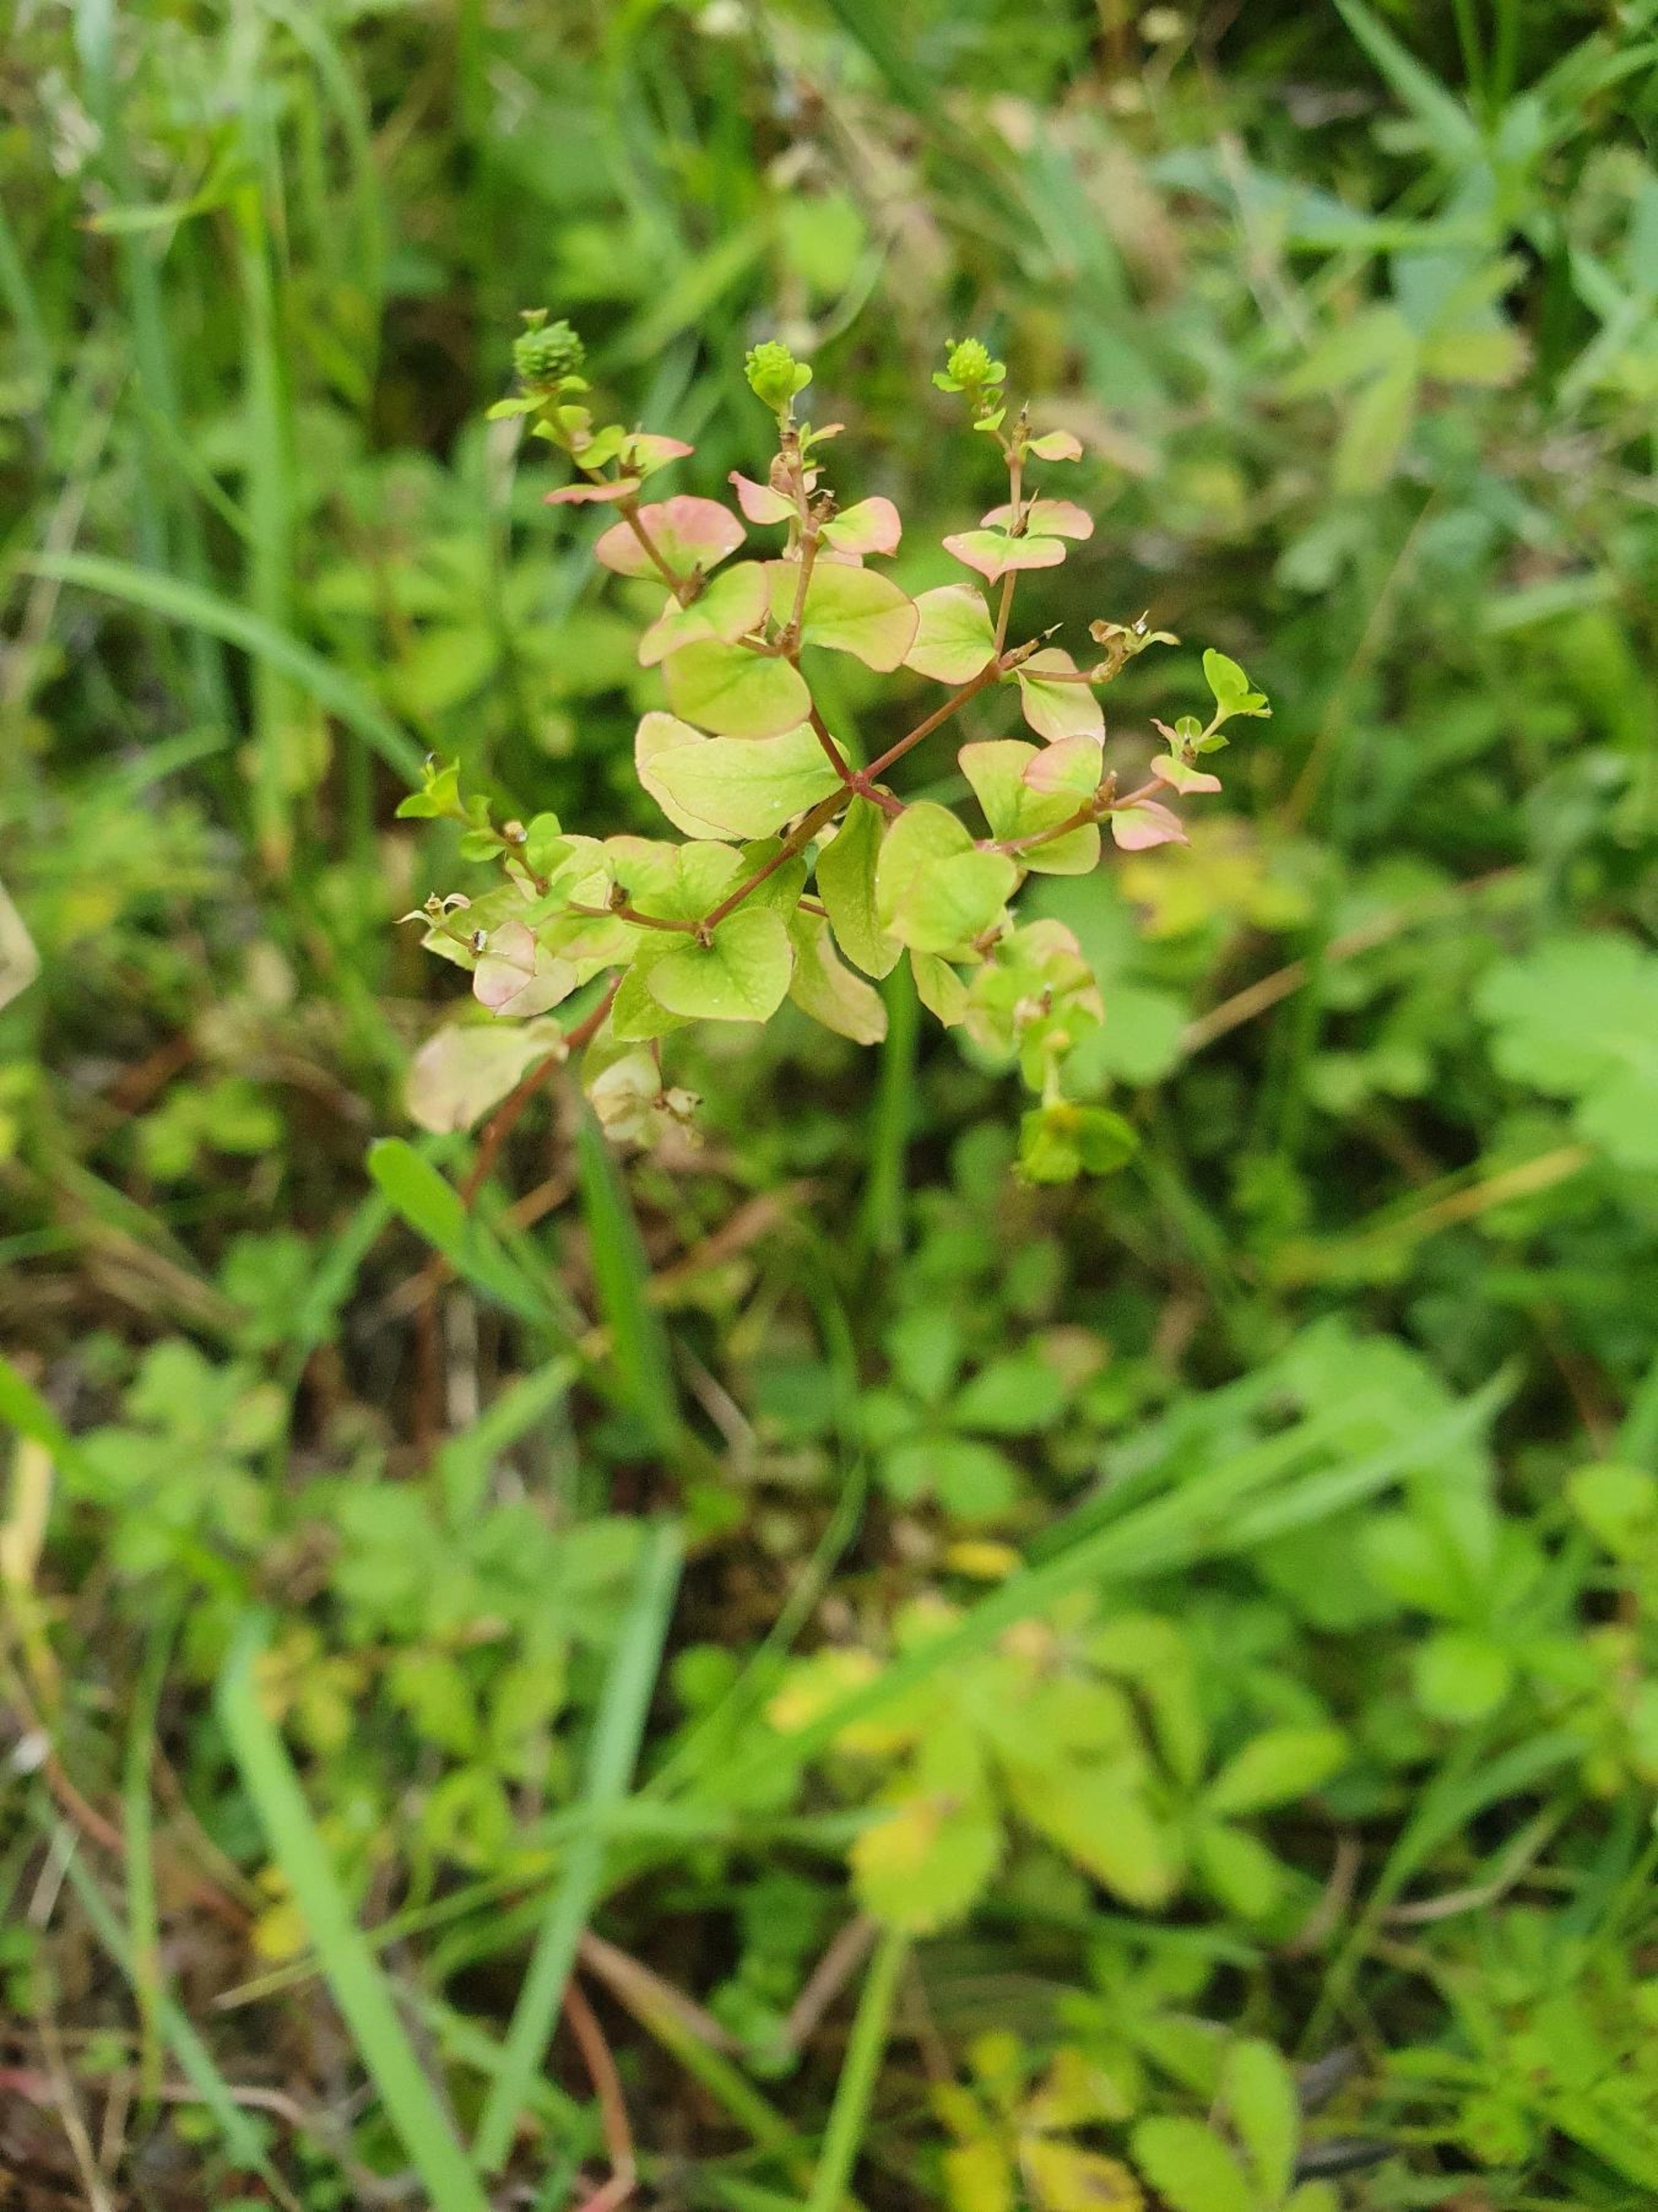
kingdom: Plantae
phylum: Tracheophyta
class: Magnoliopsida
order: Malpighiales
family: Euphorbiaceae
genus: Euphorbia
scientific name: Euphorbia stricta
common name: Opret vortemælk
